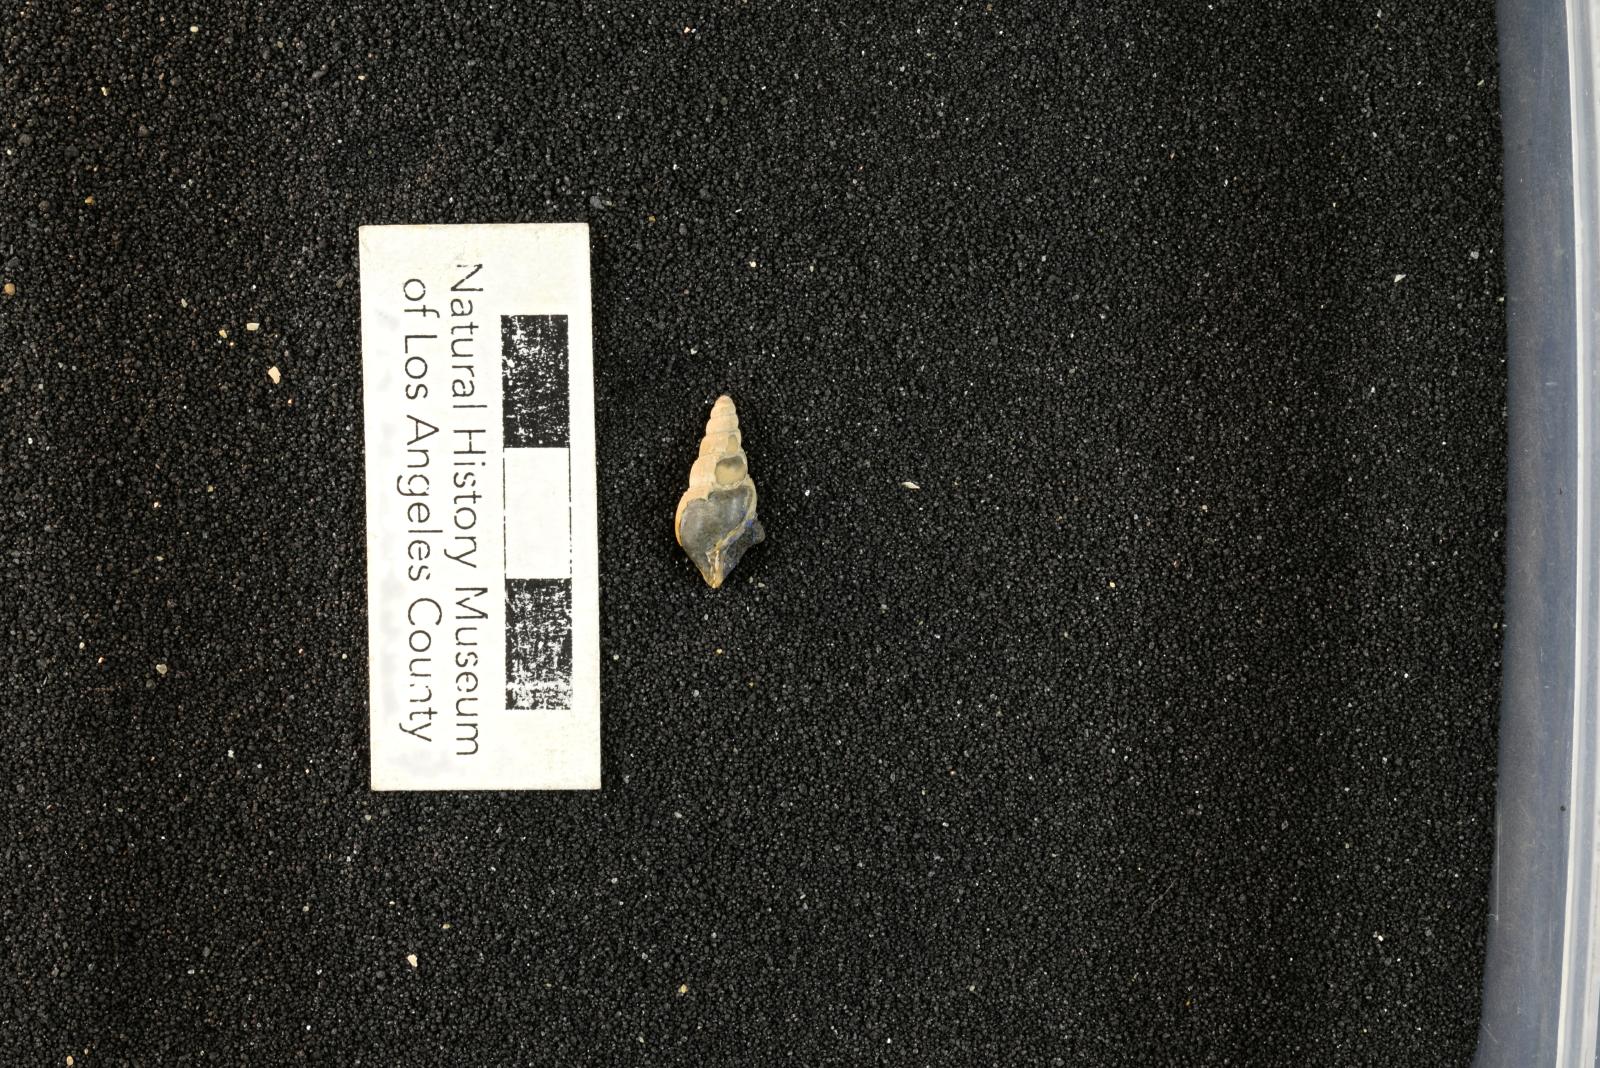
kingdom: Animalia
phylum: Mollusca
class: Gastropoda
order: Littorinimorpha
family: Aporrhaidae
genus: Latiala
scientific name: Latiala sigma
